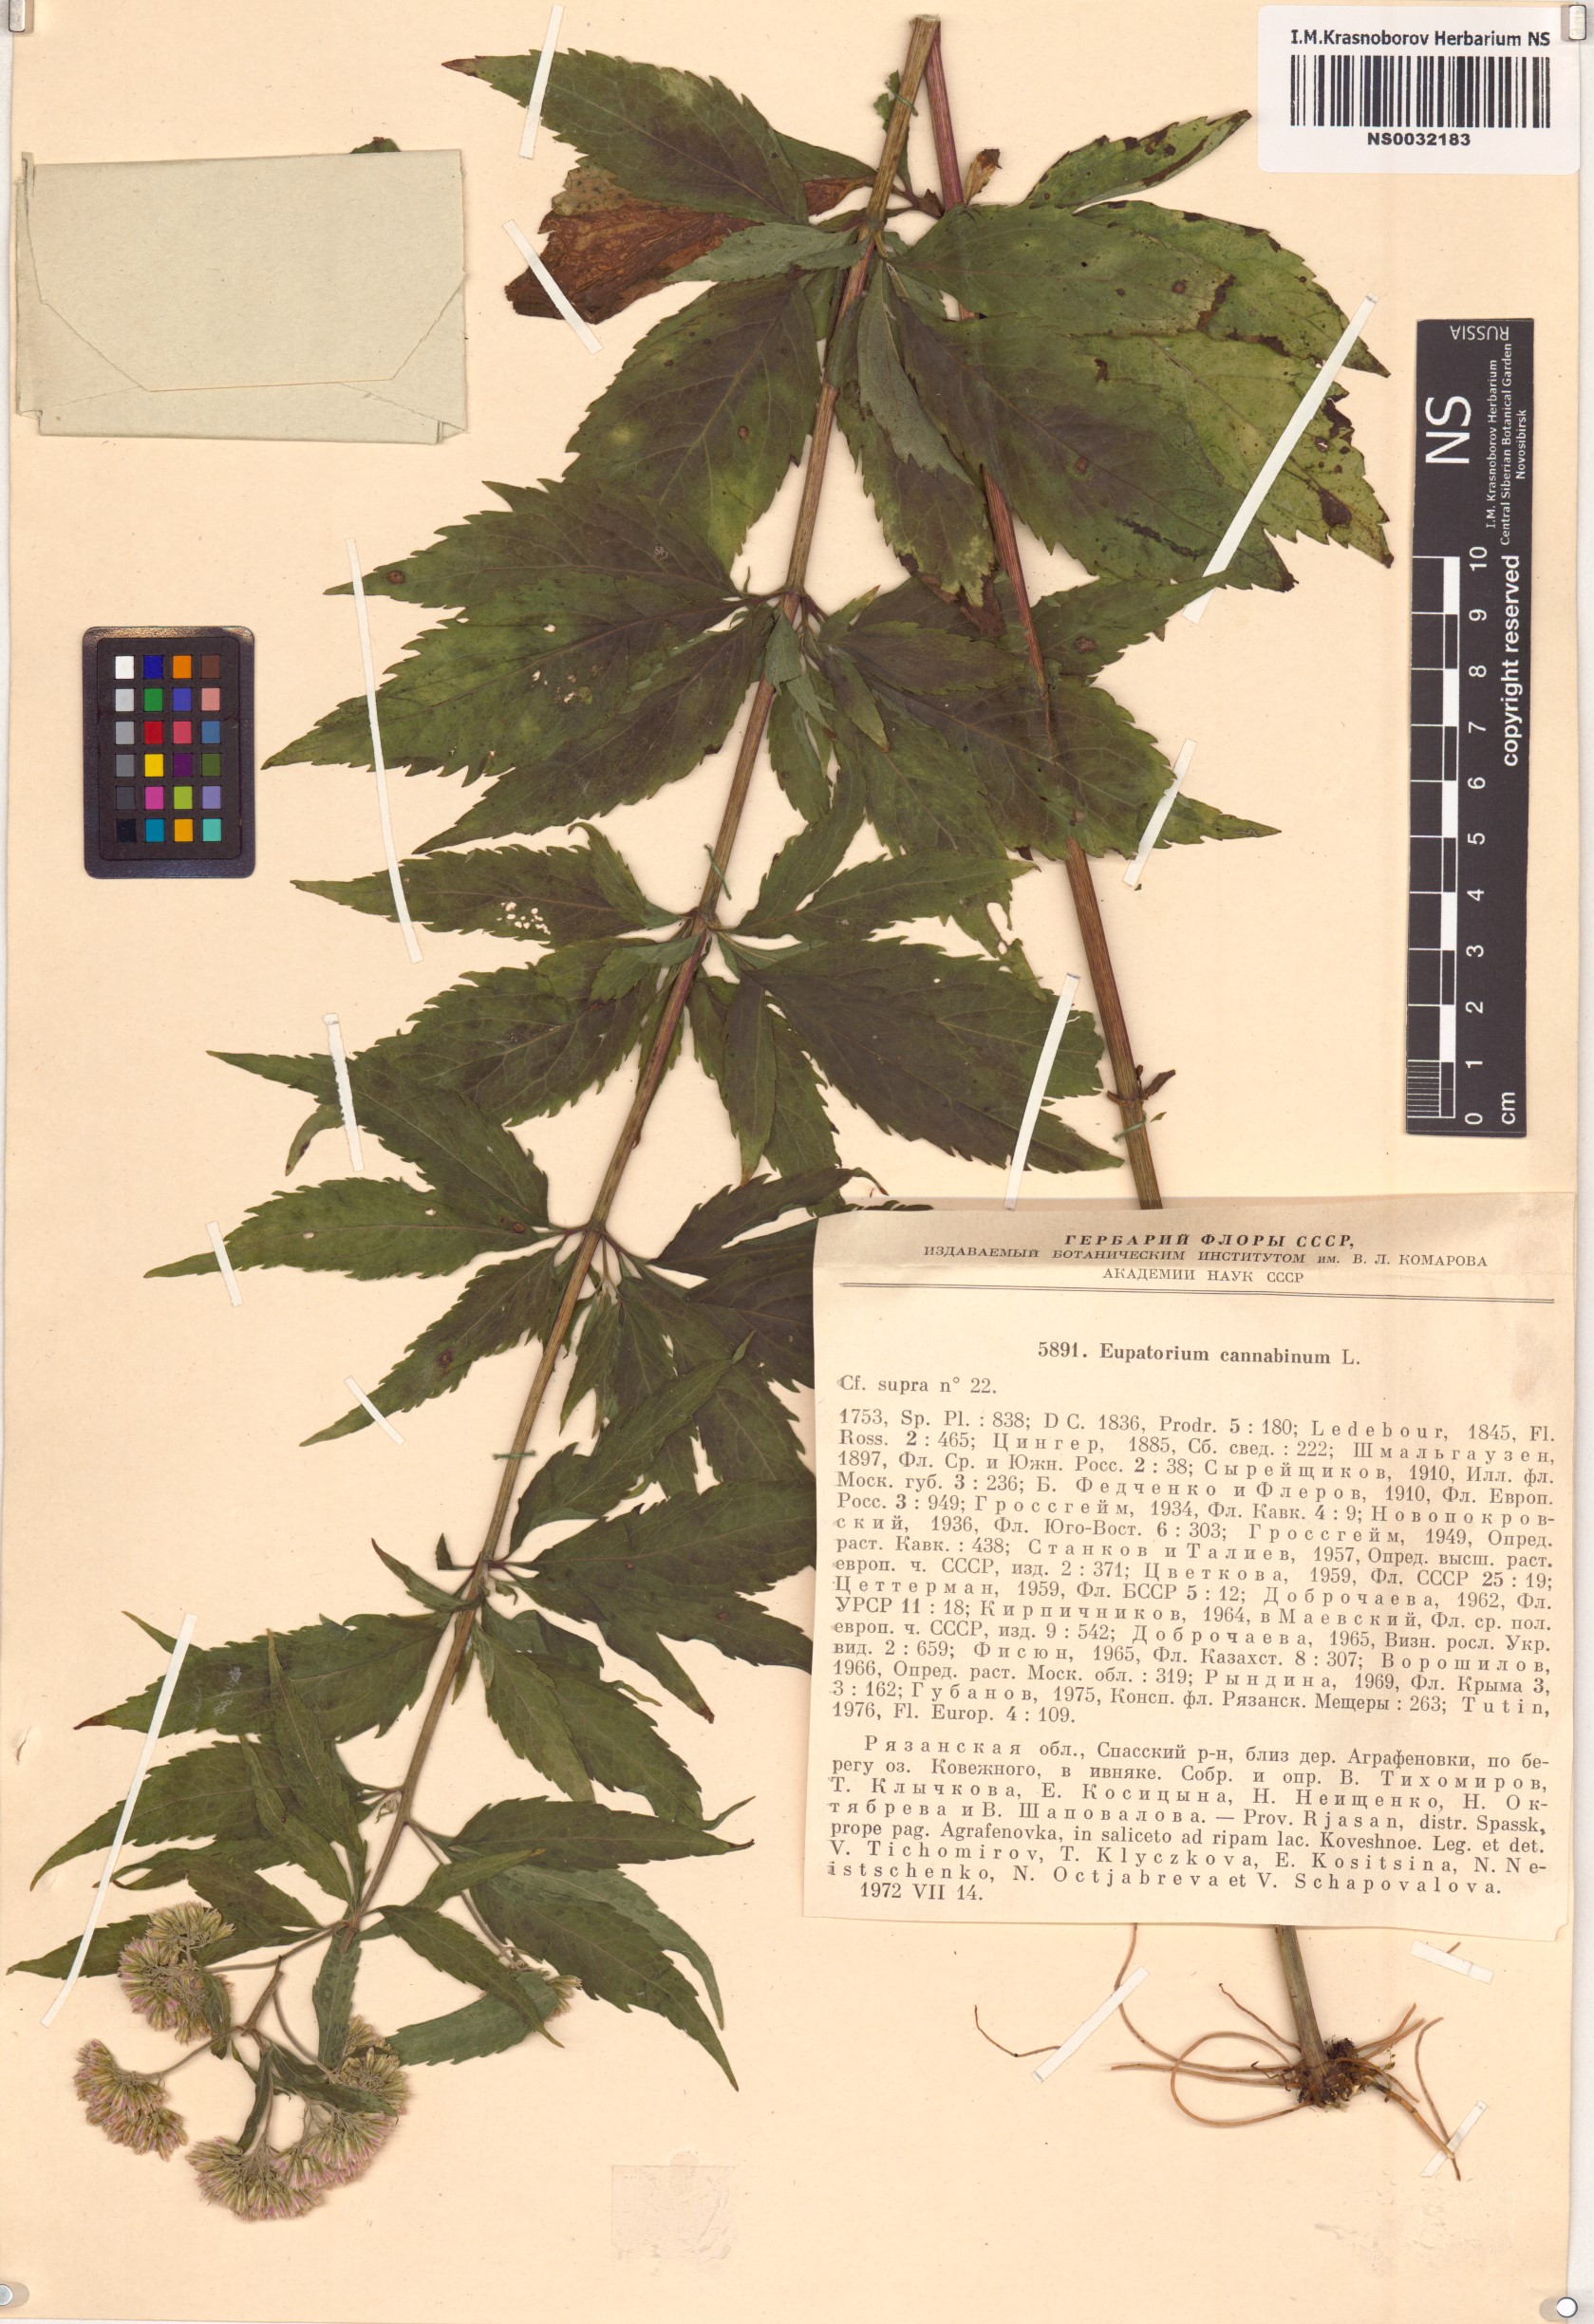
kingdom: Plantae
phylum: Tracheophyta
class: Magnoliopsida
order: Asterales
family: Asteraceae
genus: Eupatorium
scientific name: Eupatorium cannabinum
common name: Hemp-agrimony
